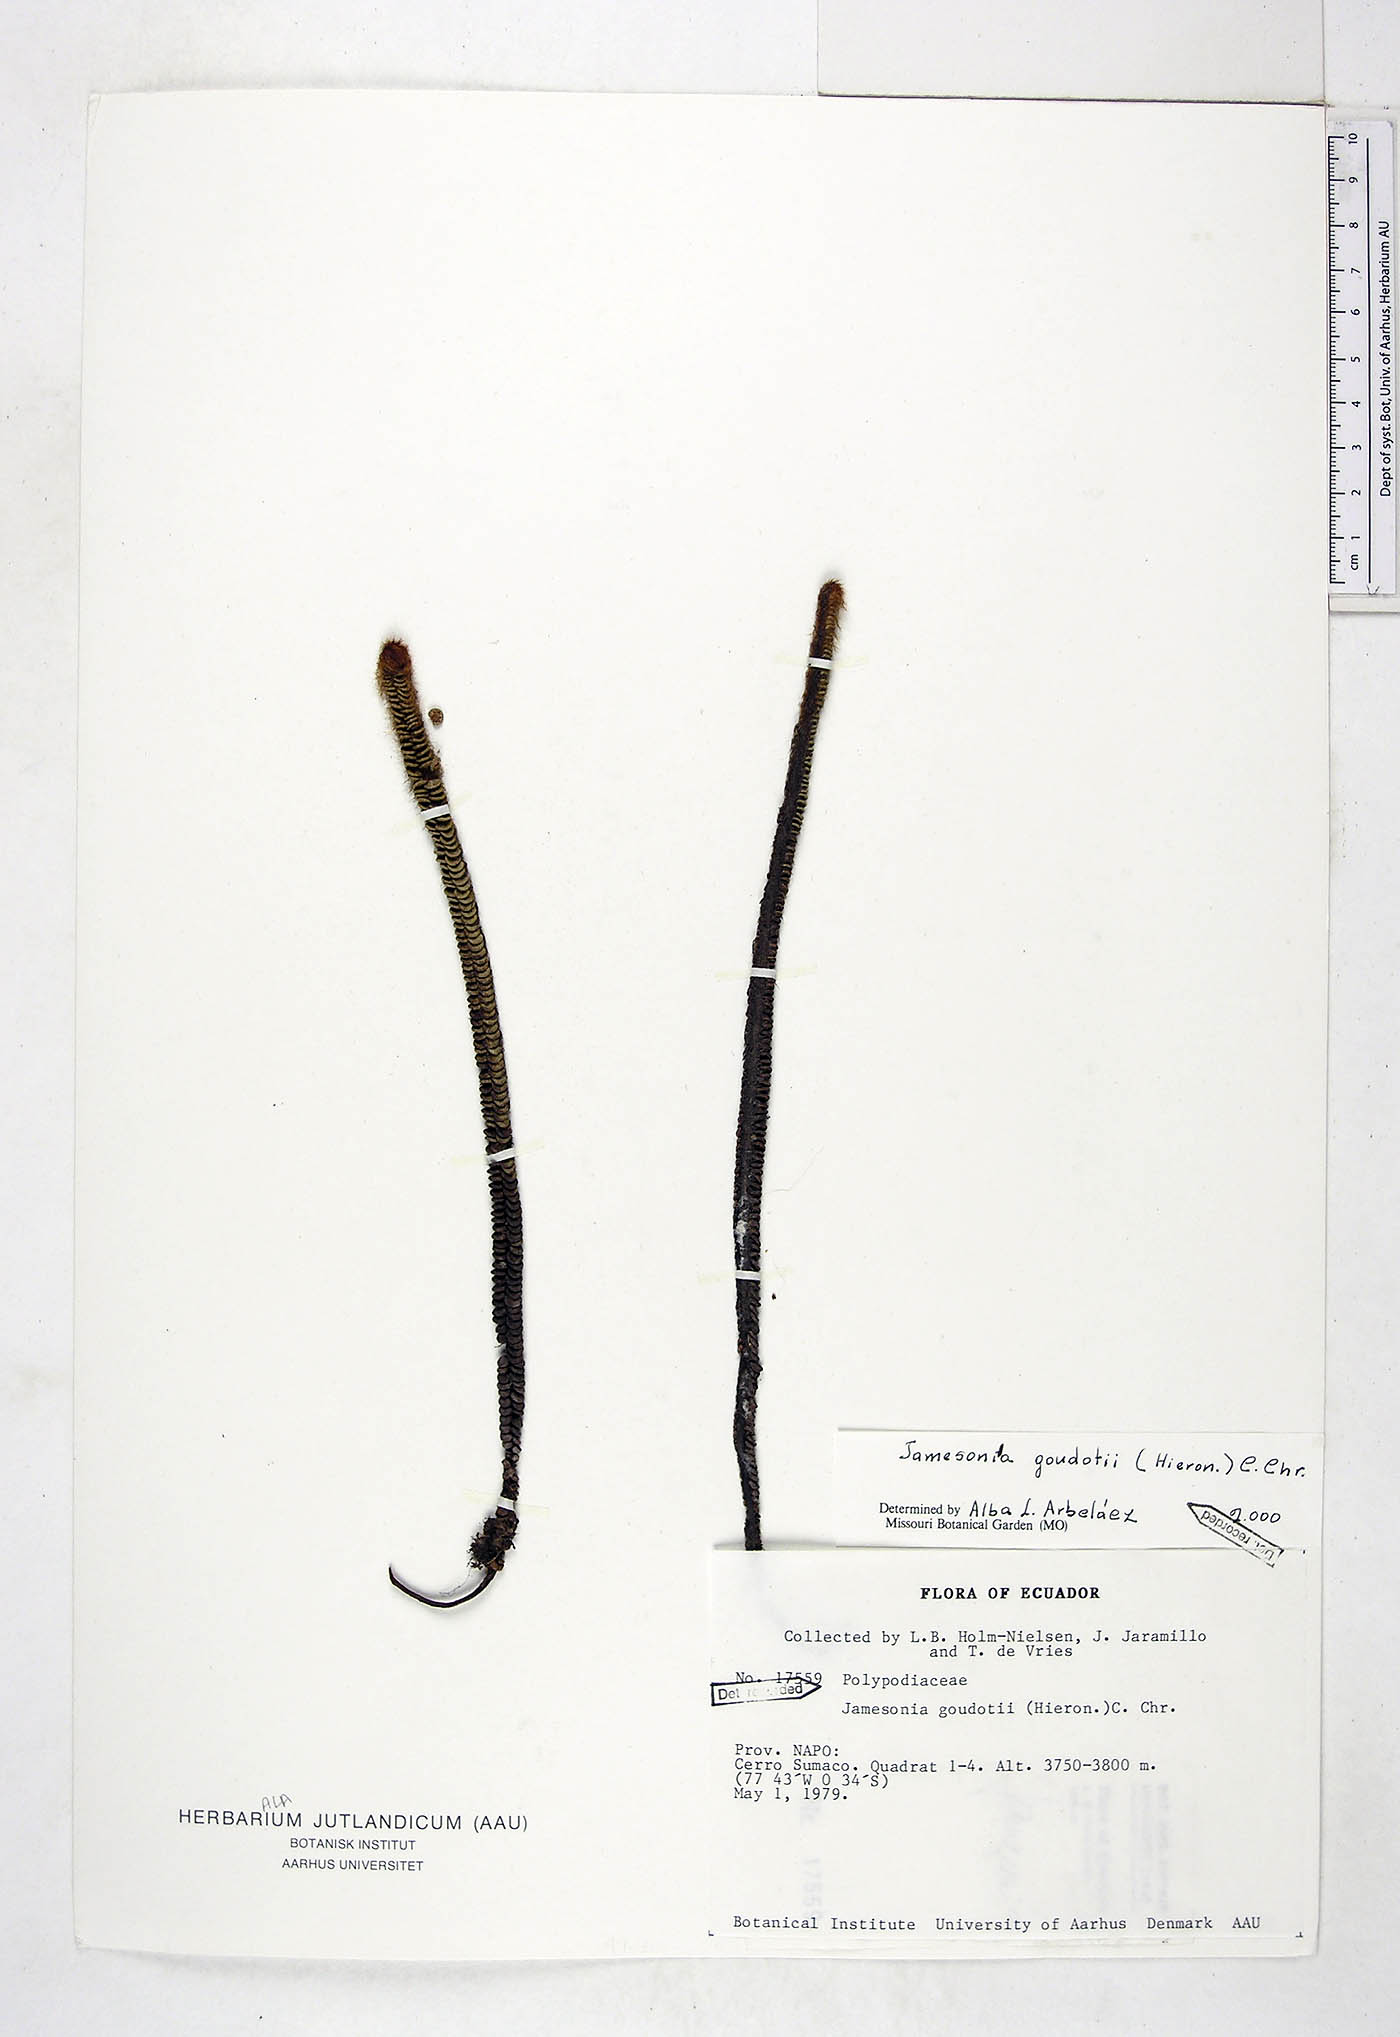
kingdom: Plantae
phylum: Tracheophyta
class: Polypodiopsida
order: Polypodiales
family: Pteridaceae
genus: Jamesonia
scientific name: Jamesonia goudotii
